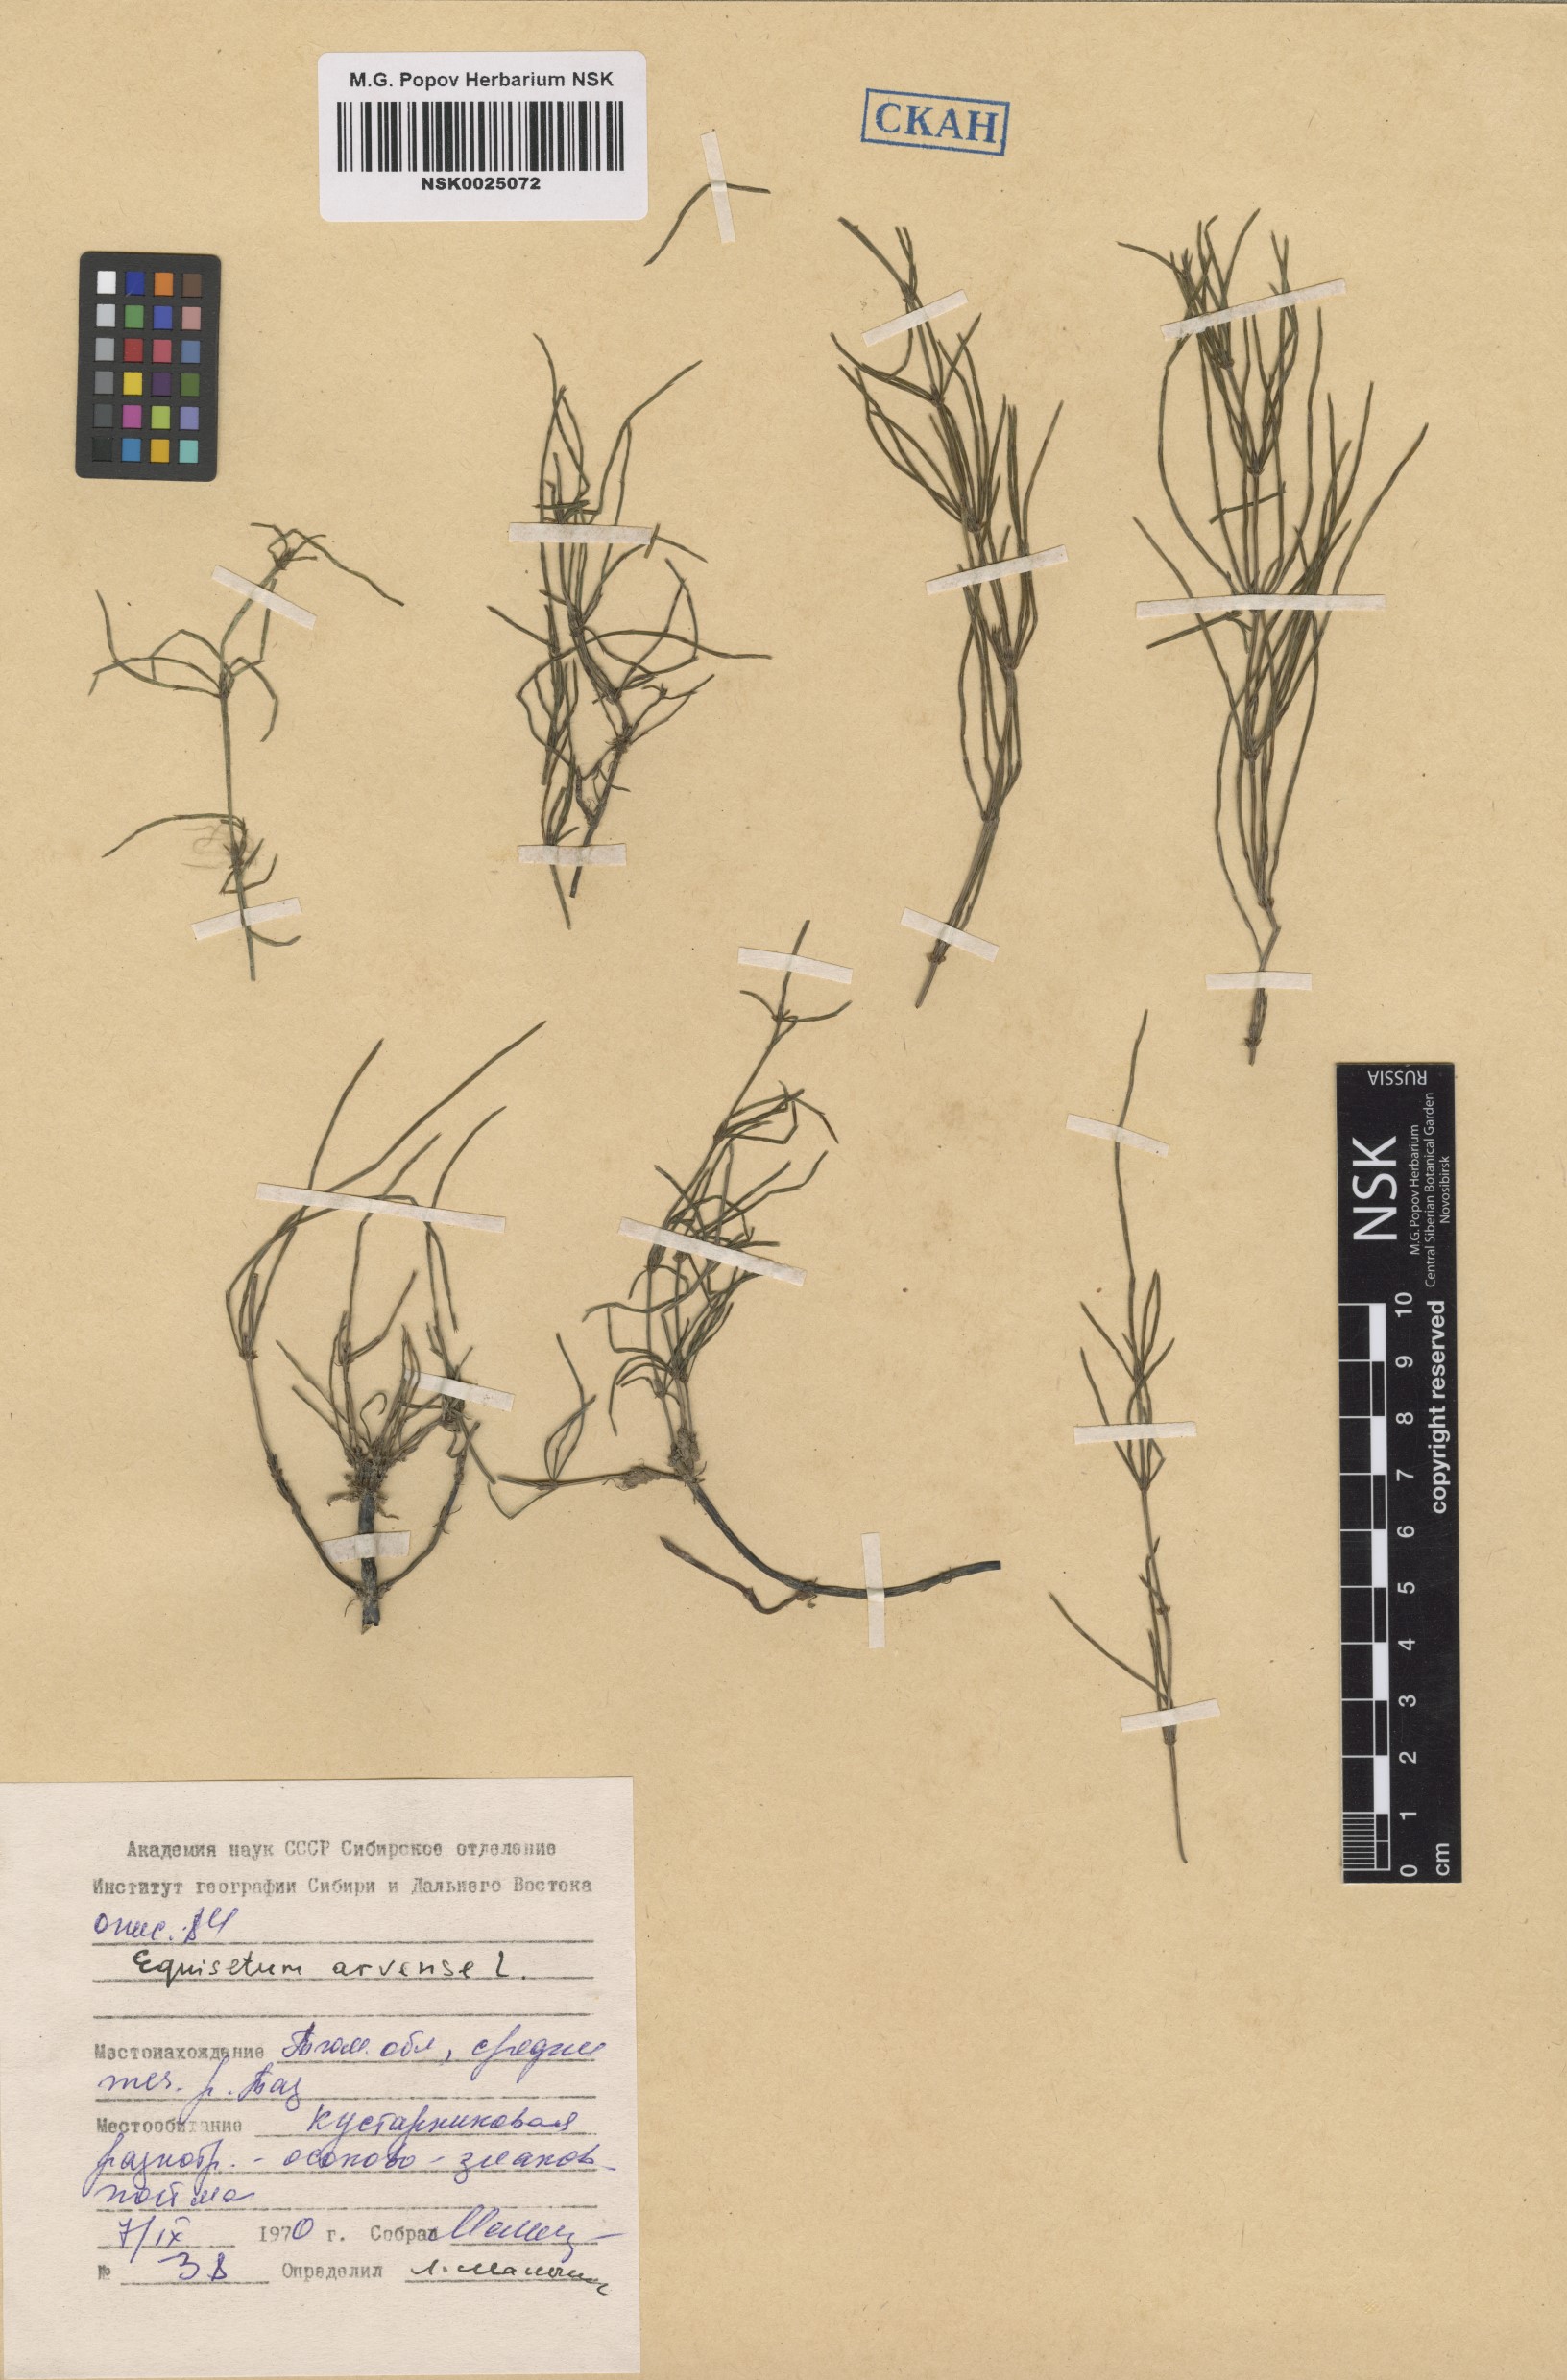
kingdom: Plantae
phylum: Tracheophyta
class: Polypodiopsida
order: Equisetales
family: Equisetaceae
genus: Equisetum
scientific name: Equisetum arvense
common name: Field horsetail
